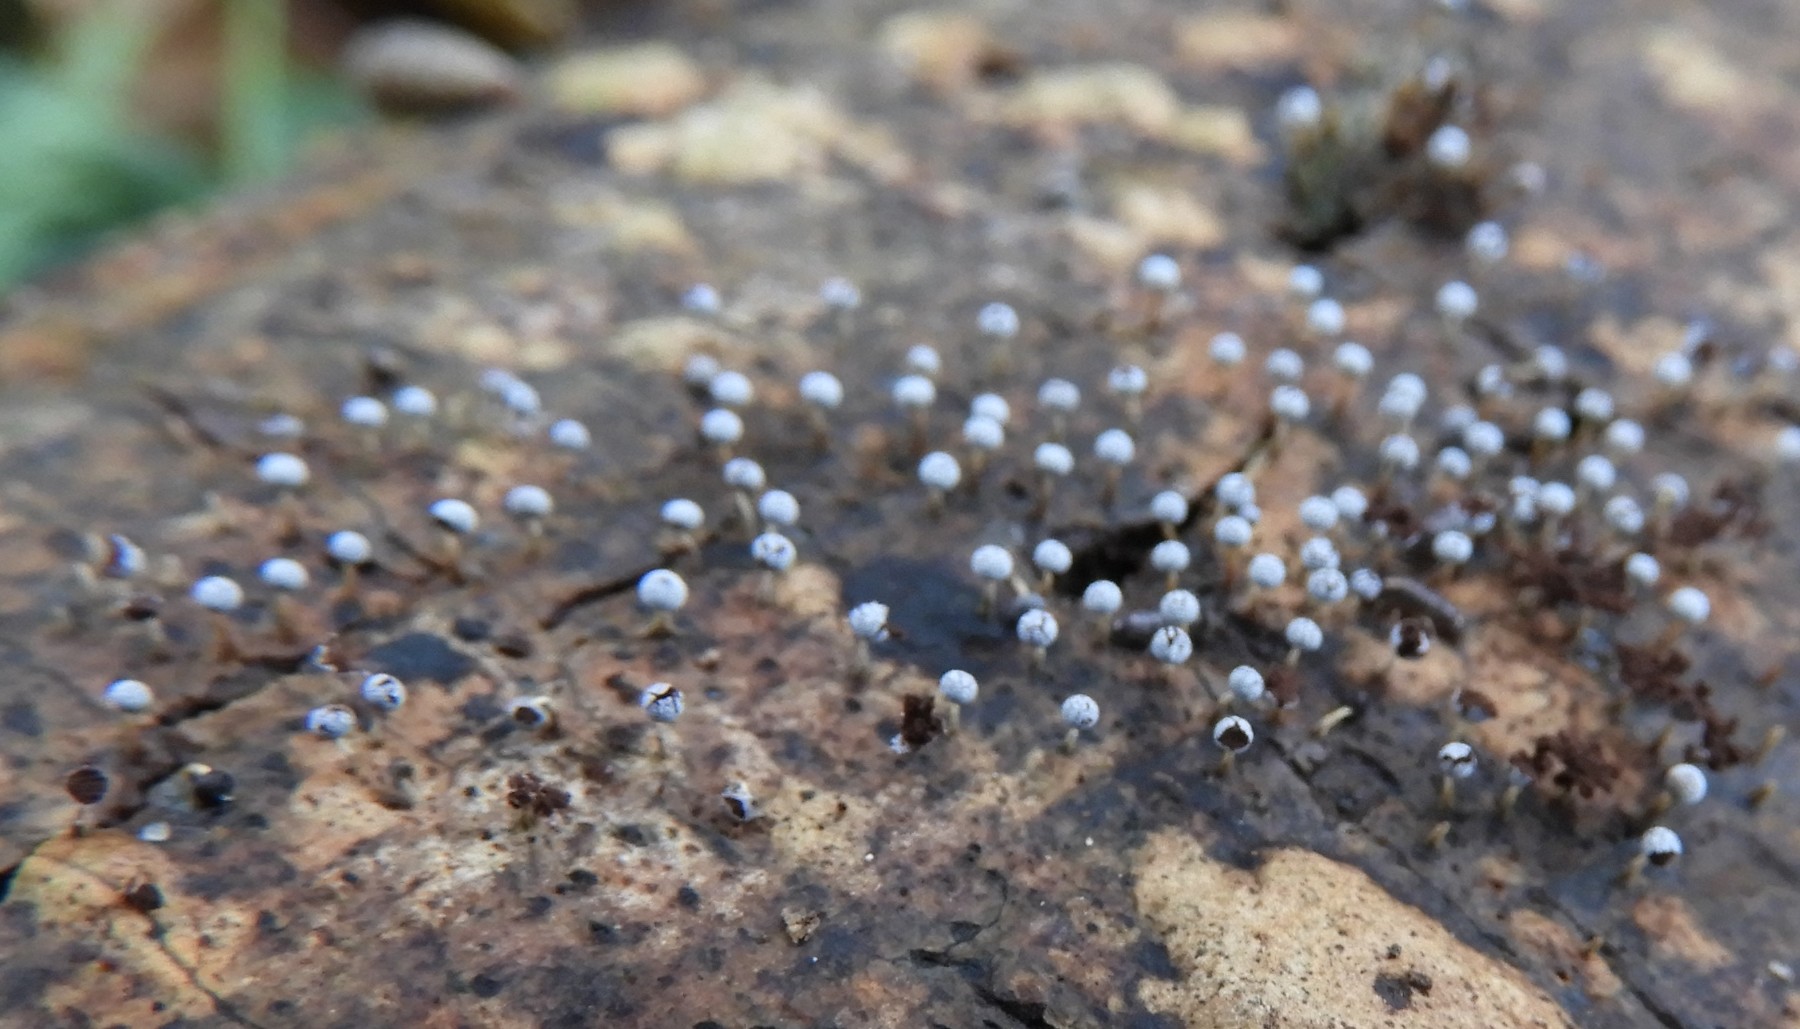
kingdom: Protozoa
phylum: Mycetozoa
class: Myxomycetes
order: Physarales
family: Physaraceae
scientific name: Physaraceae
